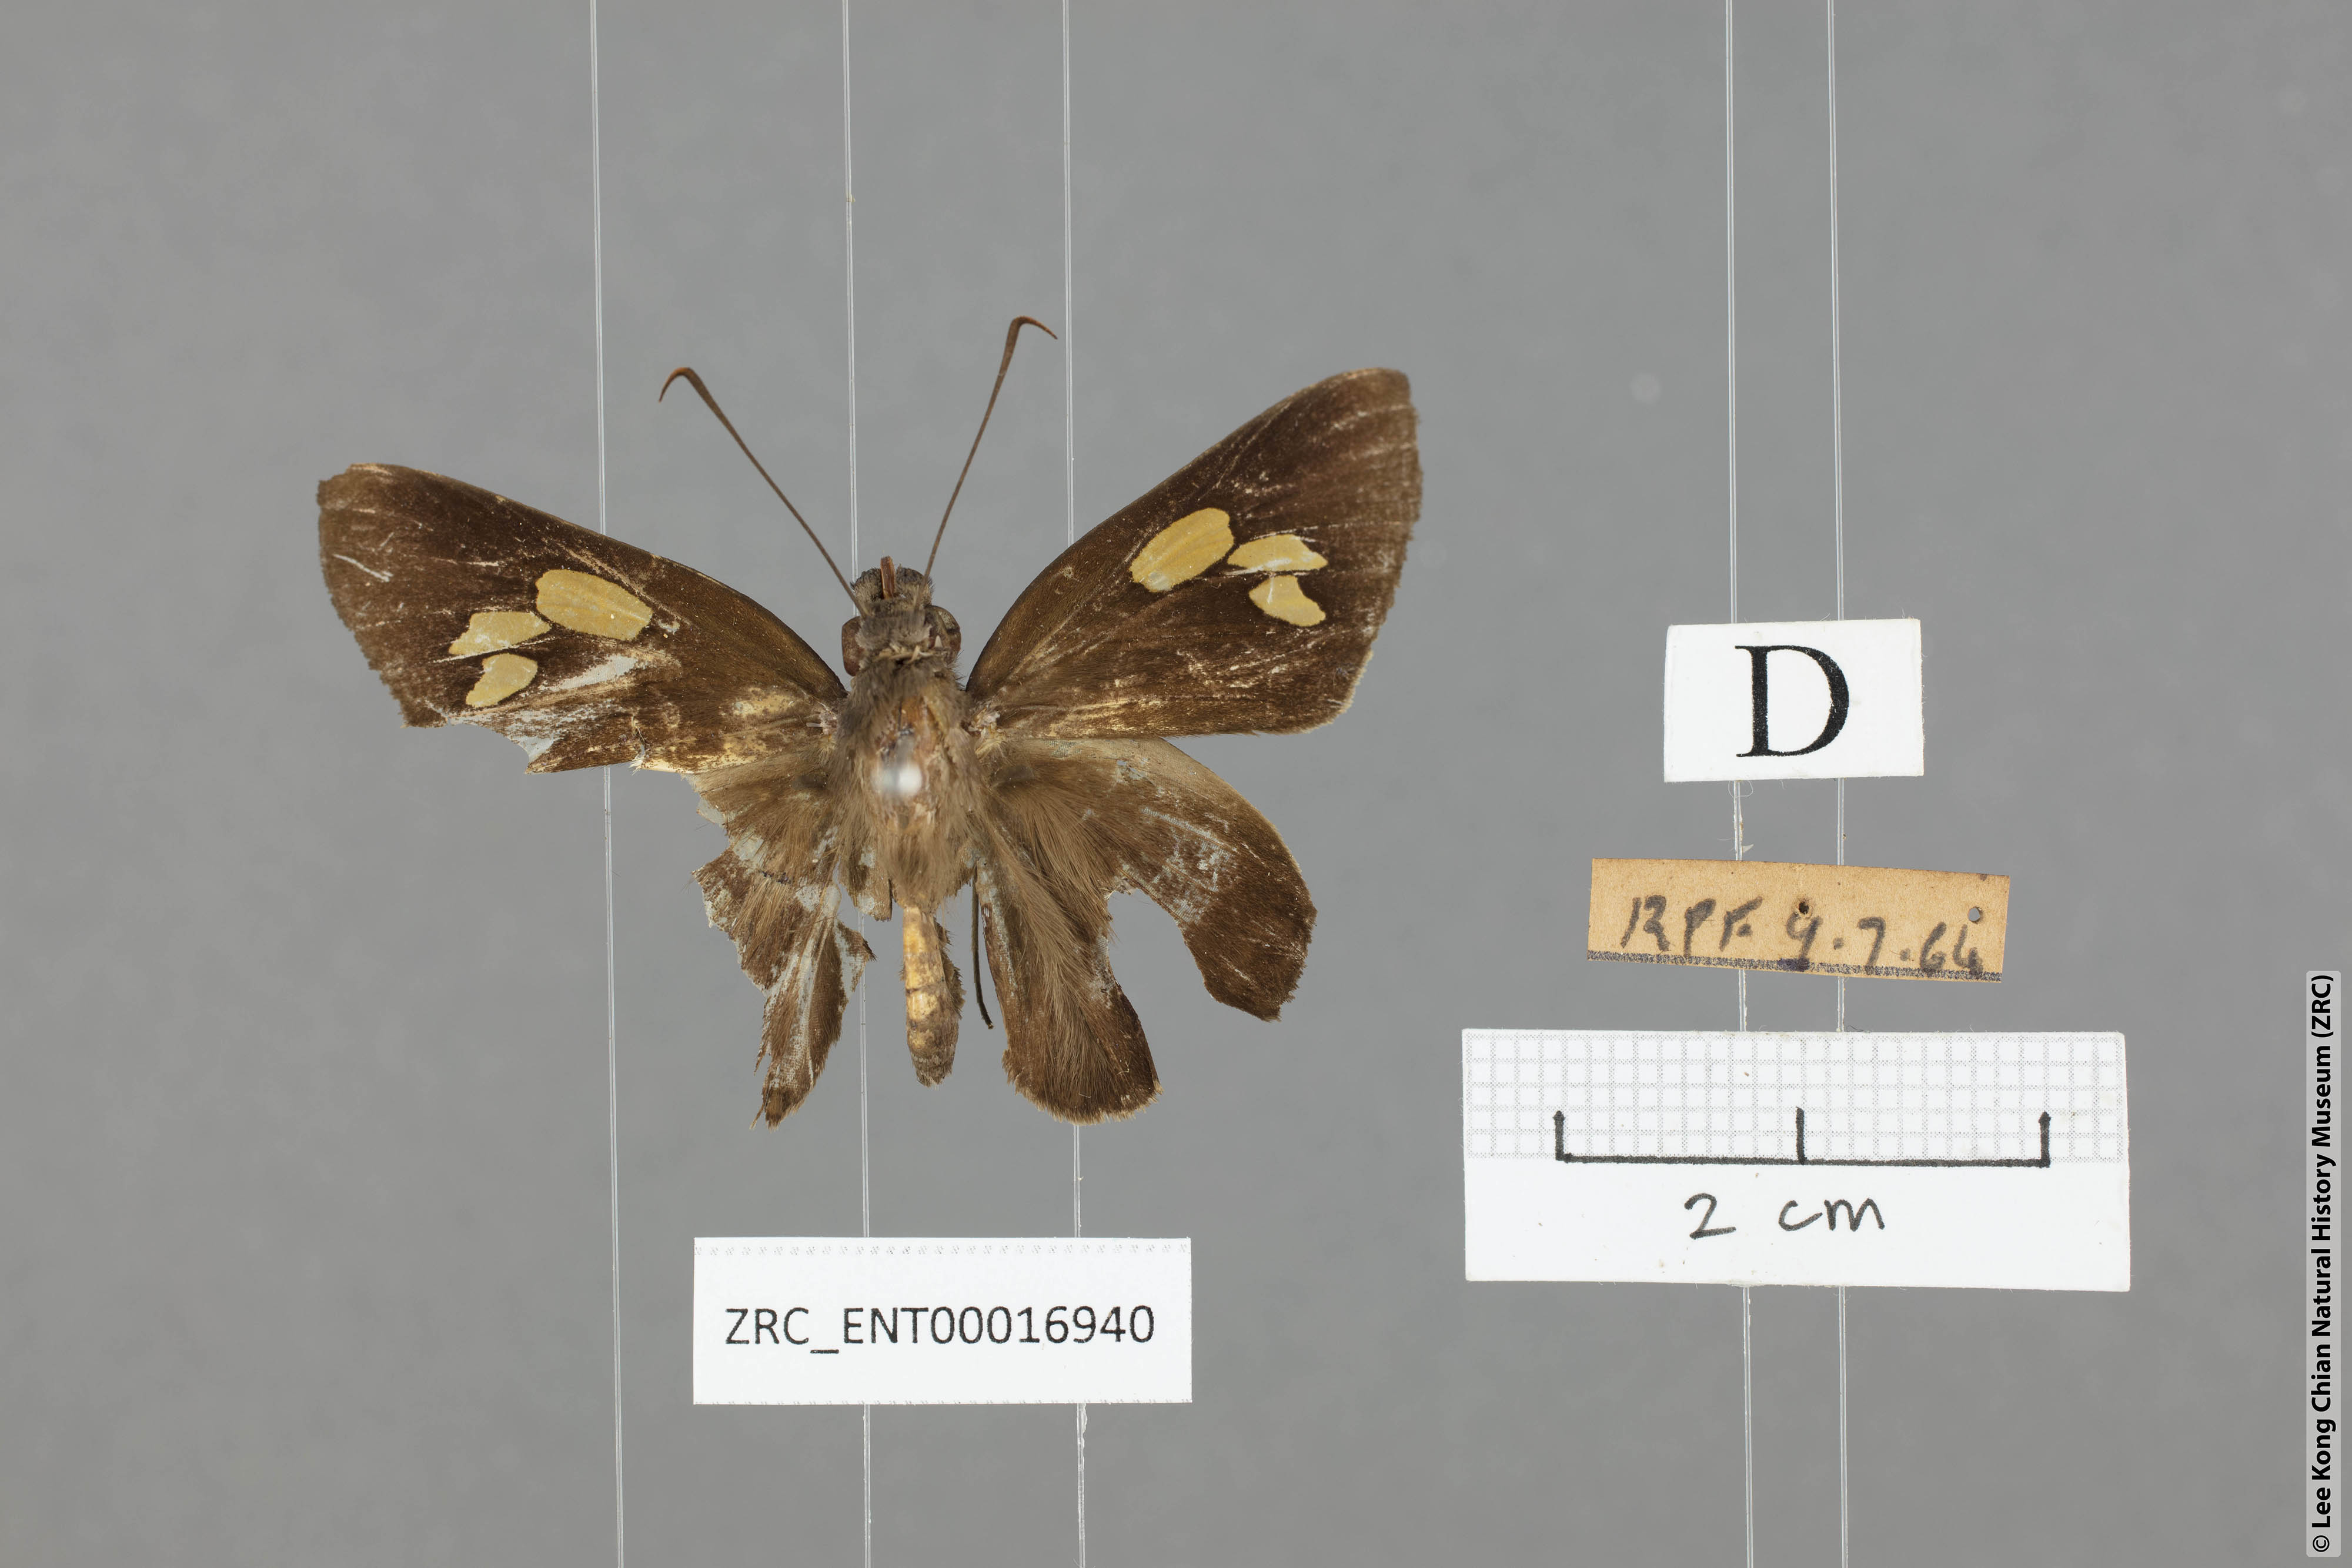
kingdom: Animalia
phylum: Arthropoda
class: Insecta
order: Lepidoptera
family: Hesperiidae
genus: Gangara
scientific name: Gangara sanguinocculus
